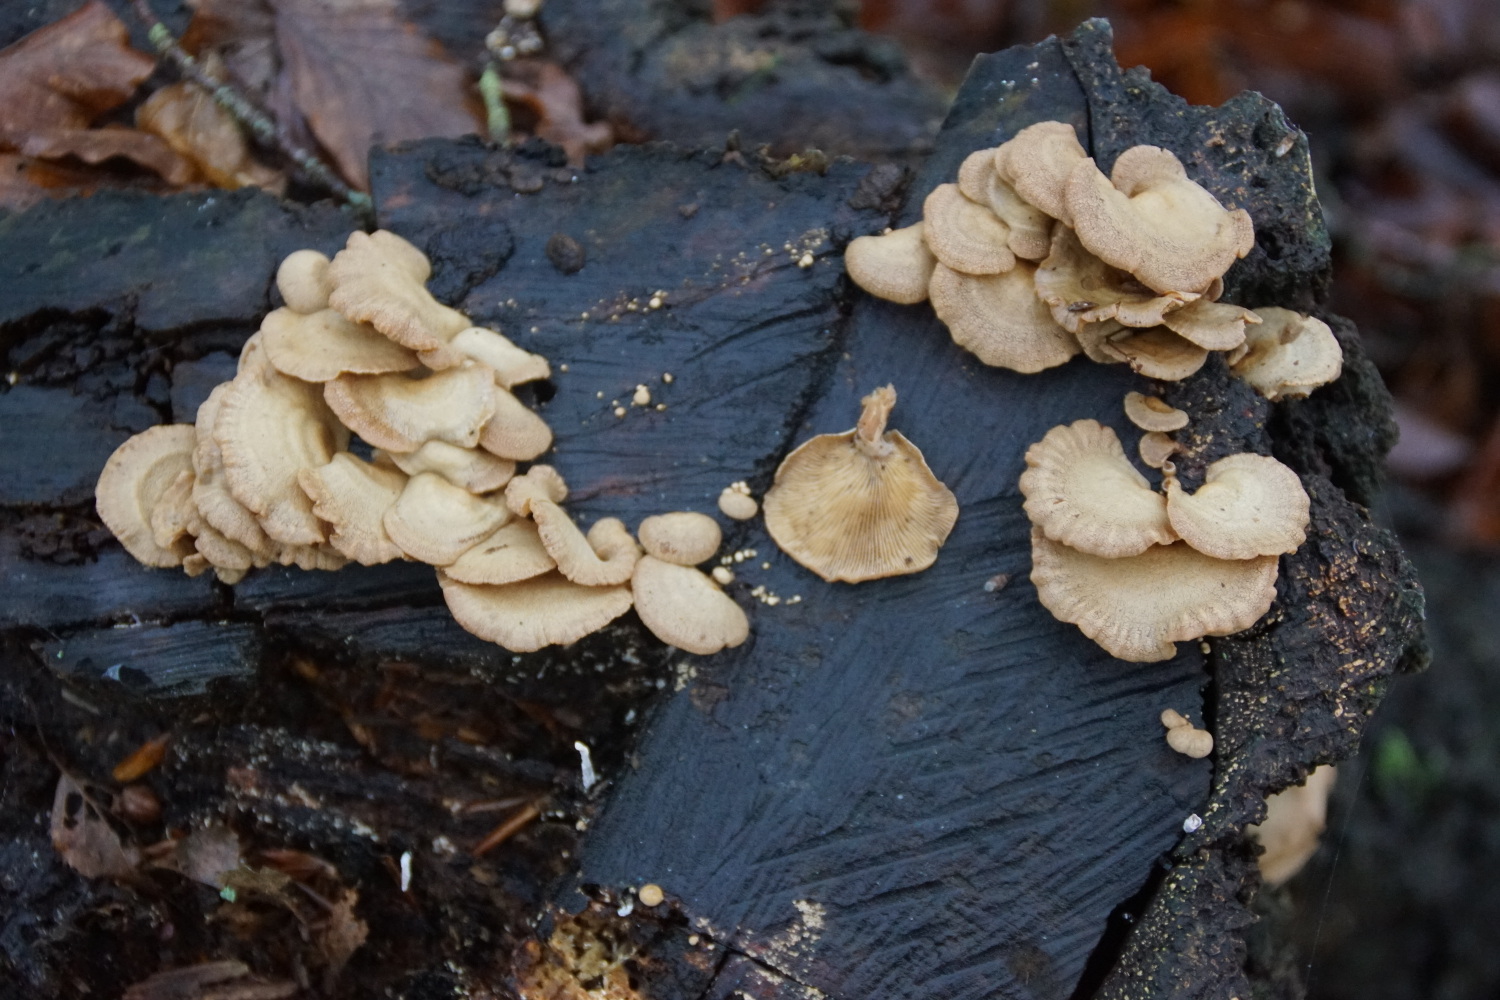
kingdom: Fungi
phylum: Basidiomycota
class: Agaricomycetes
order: Agaricales
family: Mycenaceae
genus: Panellus
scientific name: Panellus stipticus
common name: kliddet epaulethat
